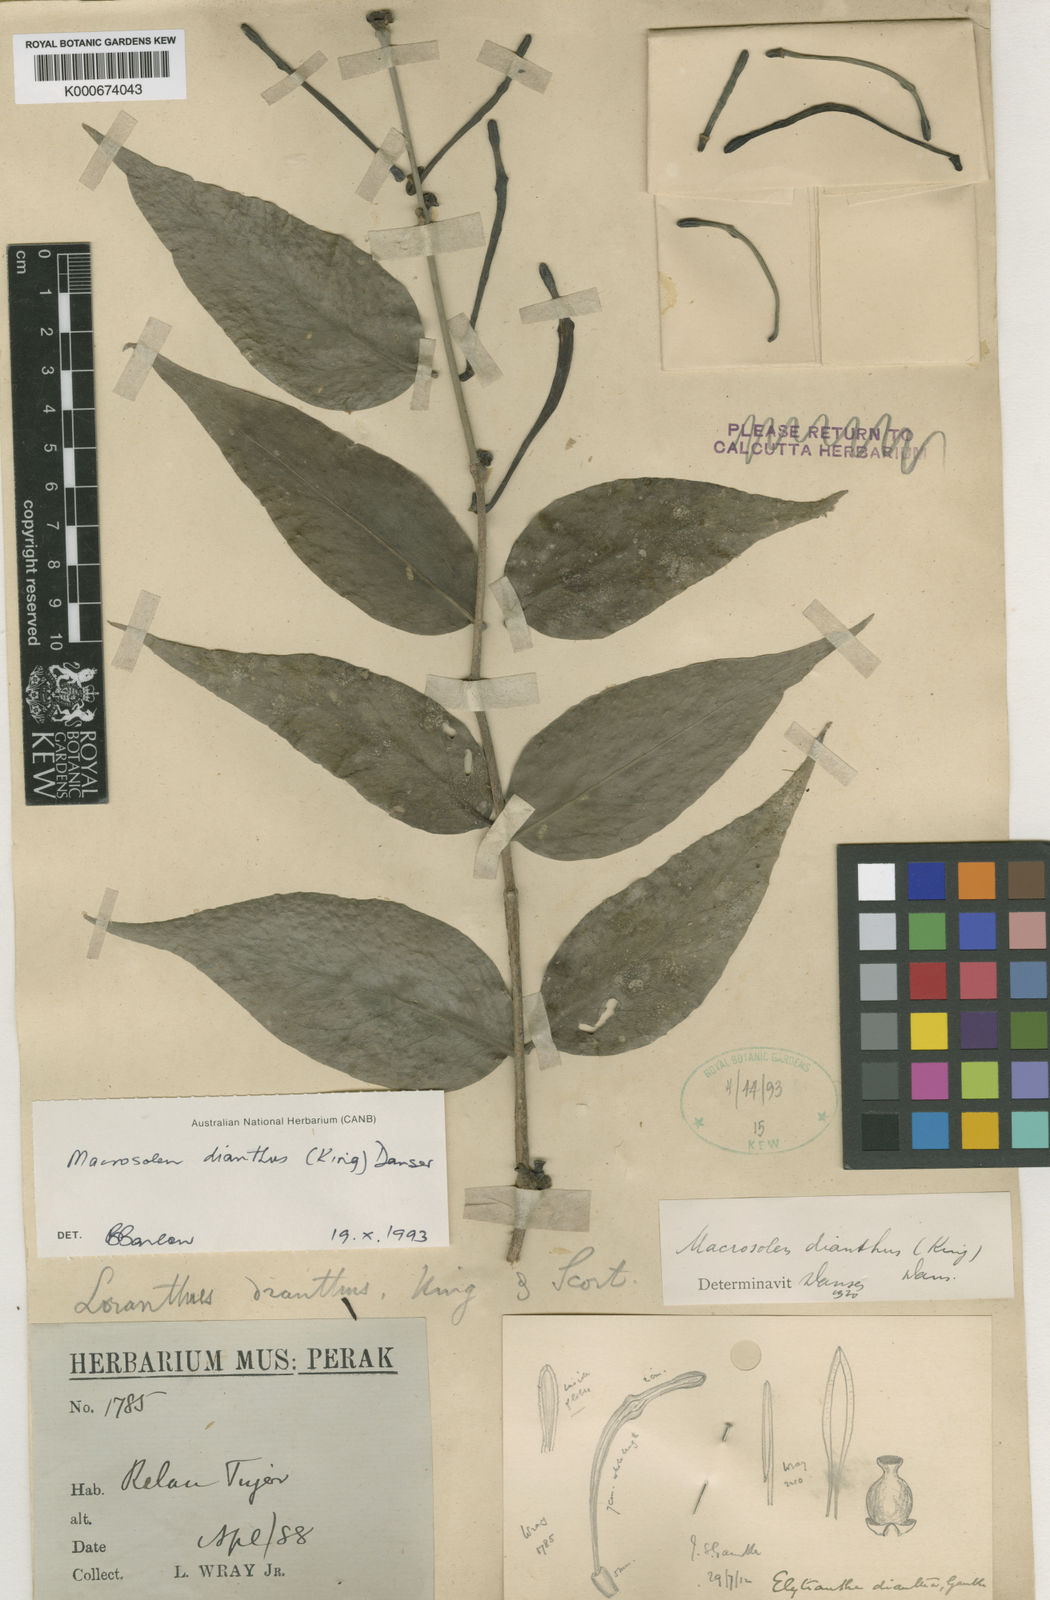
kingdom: Plantae
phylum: Tracheophyta
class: Magnoliopsida
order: Santalales
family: Loranthaceae
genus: Macrosolen
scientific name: Macrosolen dianthus
